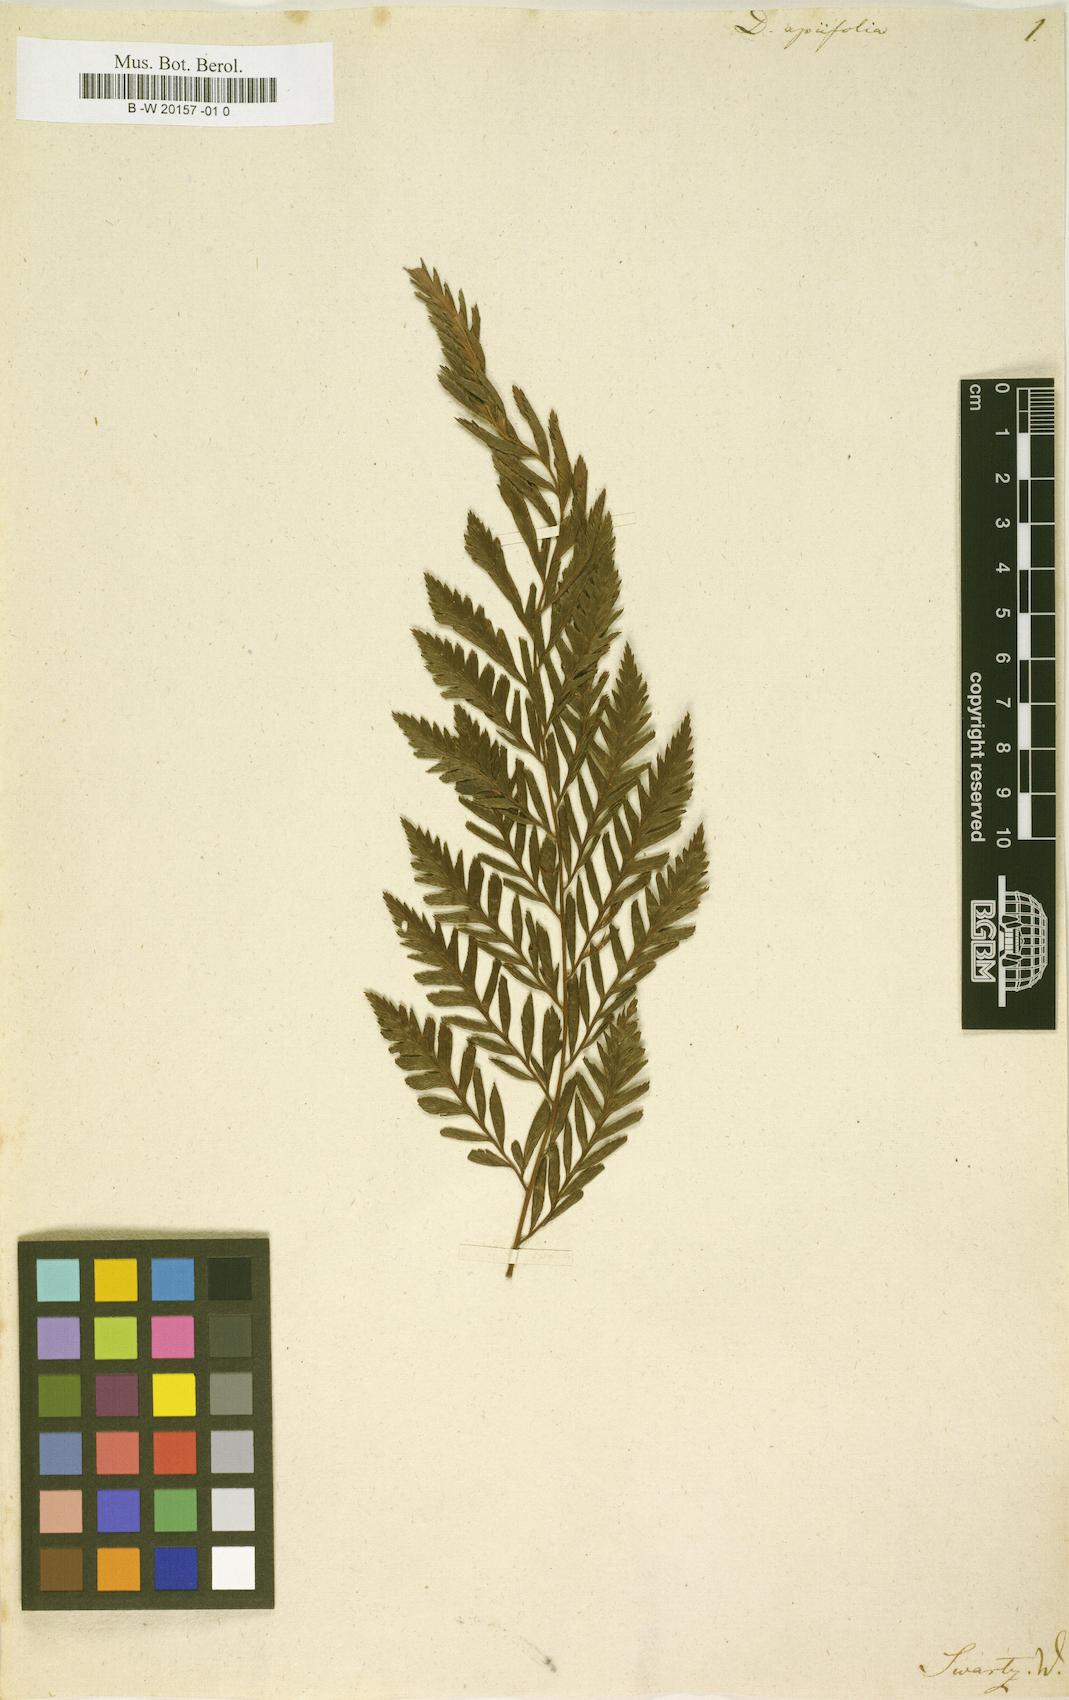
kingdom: Plantae
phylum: Tracheophyta
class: Polypodiopsida
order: Polypodiales
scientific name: Polypodiales
